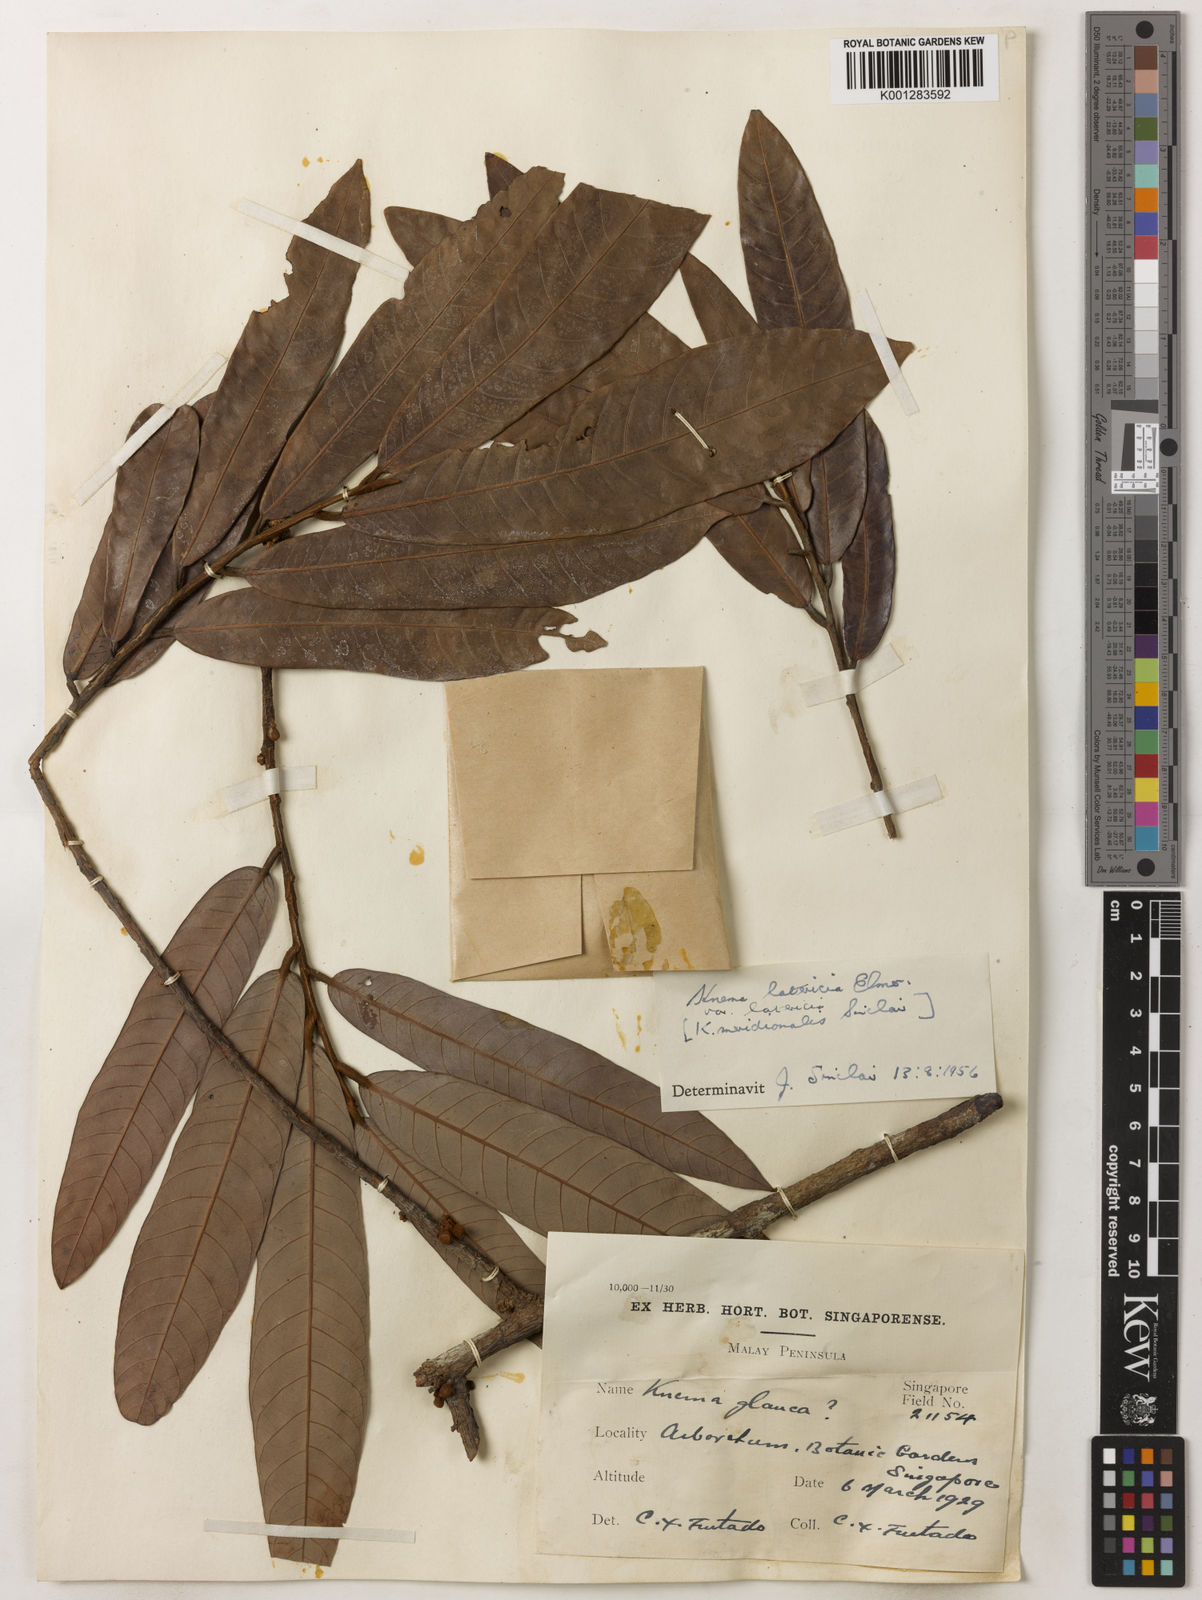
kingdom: Plantae
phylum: Tracheophyta
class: Magnoliopsida
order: Magnoliales
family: Myristicaceae
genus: Knema
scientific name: Knema latericia
